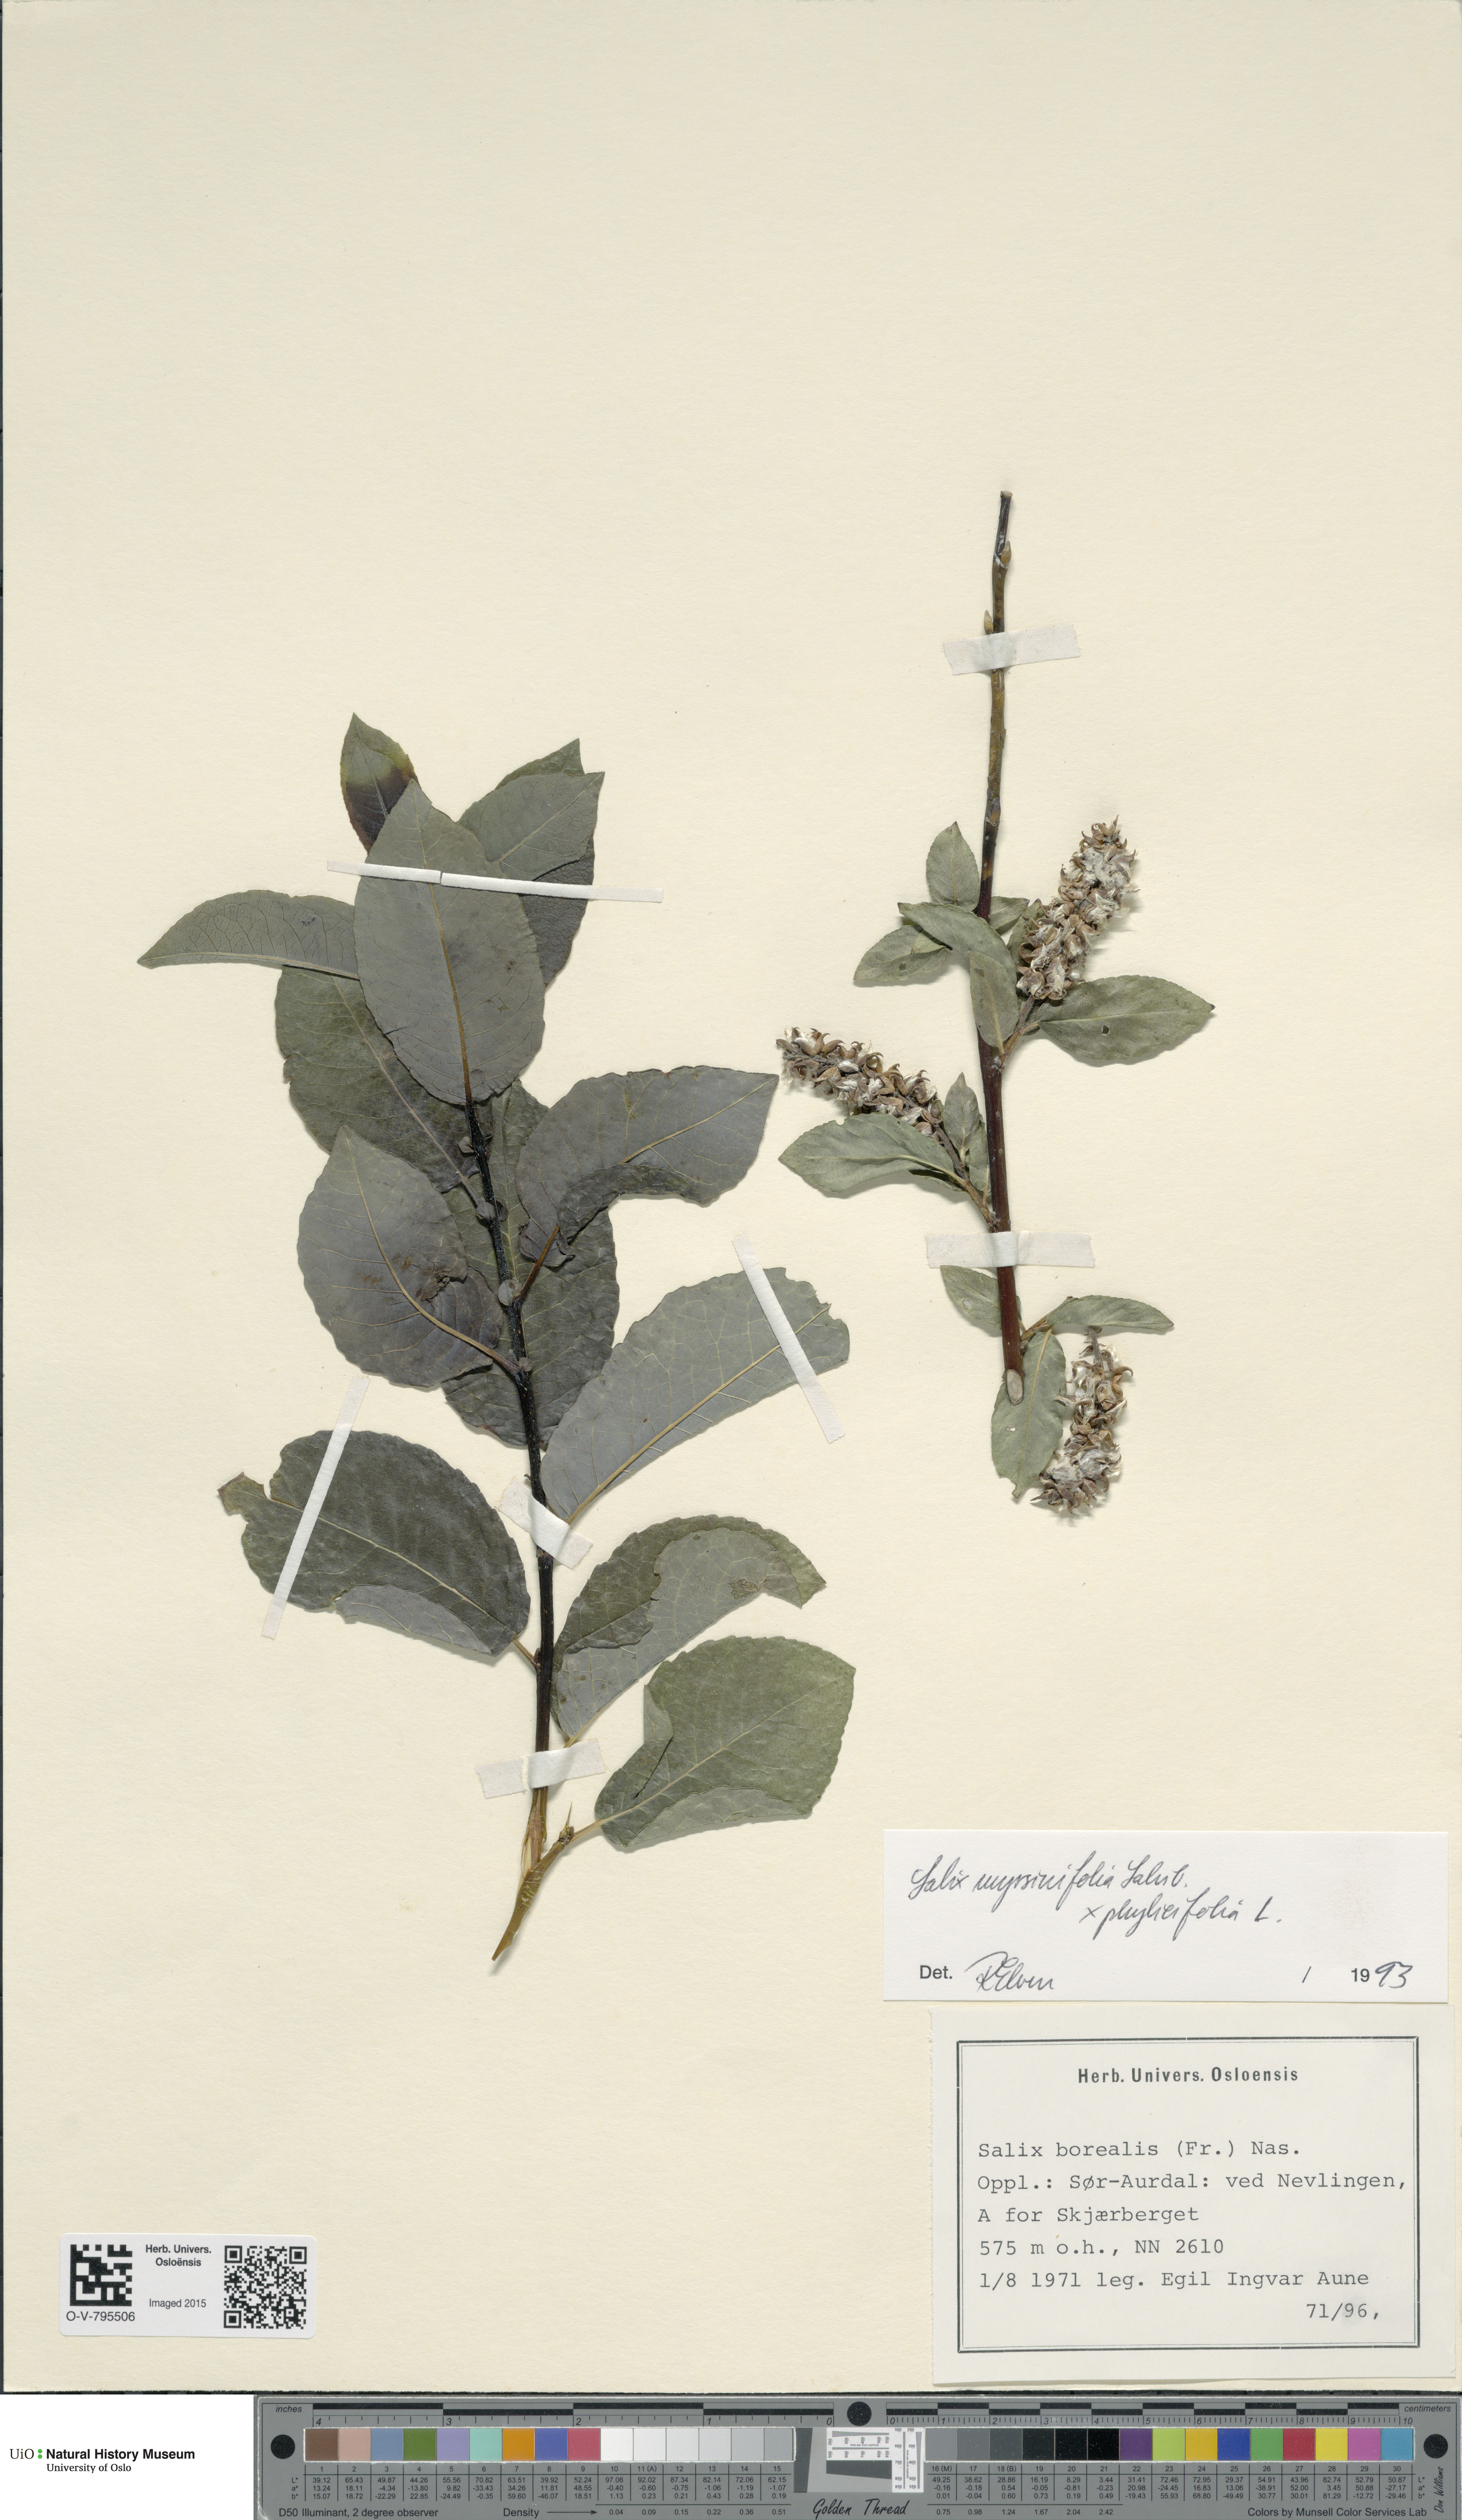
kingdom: Plantae
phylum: Tracheophyta
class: Magnoliopsida
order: Malpighiales
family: Salicaceae
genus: Salix
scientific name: Salix
